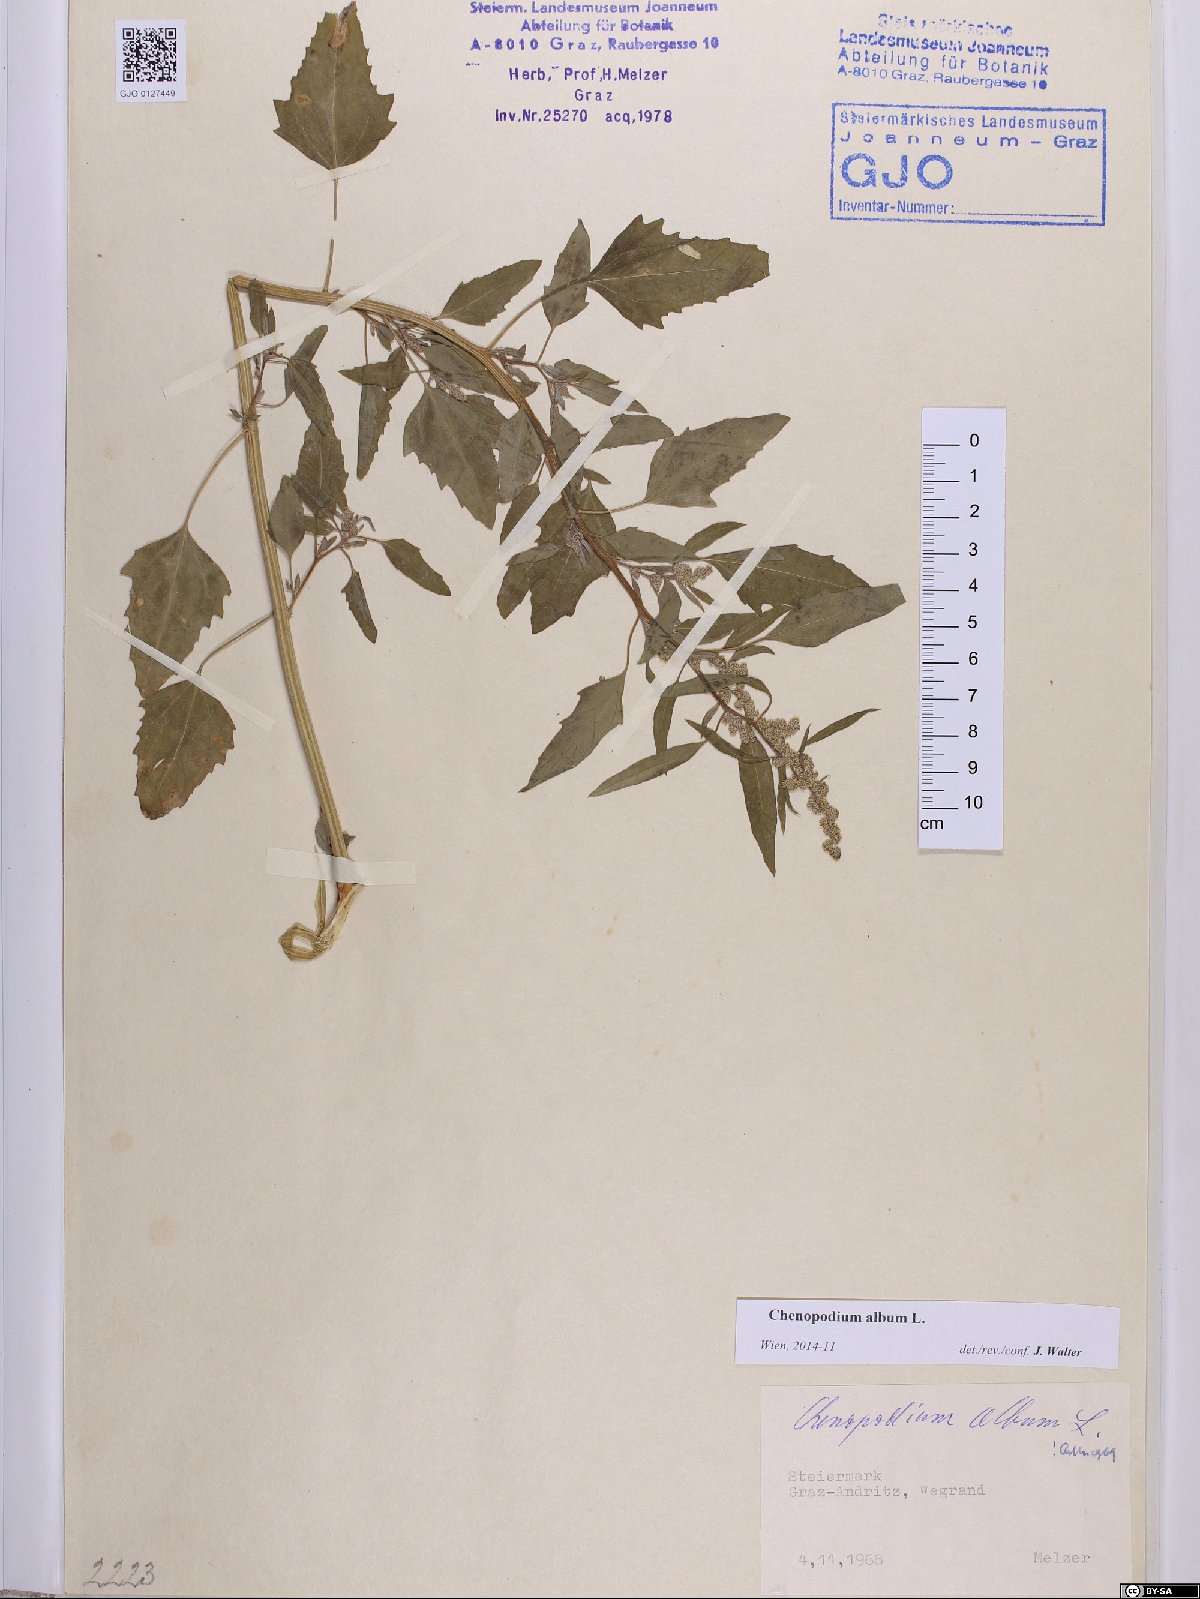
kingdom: Plantae
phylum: Tracheophyta
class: Magnoliopsida
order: Caryophyllales
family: Amaranthaceae
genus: Chenopodium
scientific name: Chenopodium album
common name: Fat-hen
